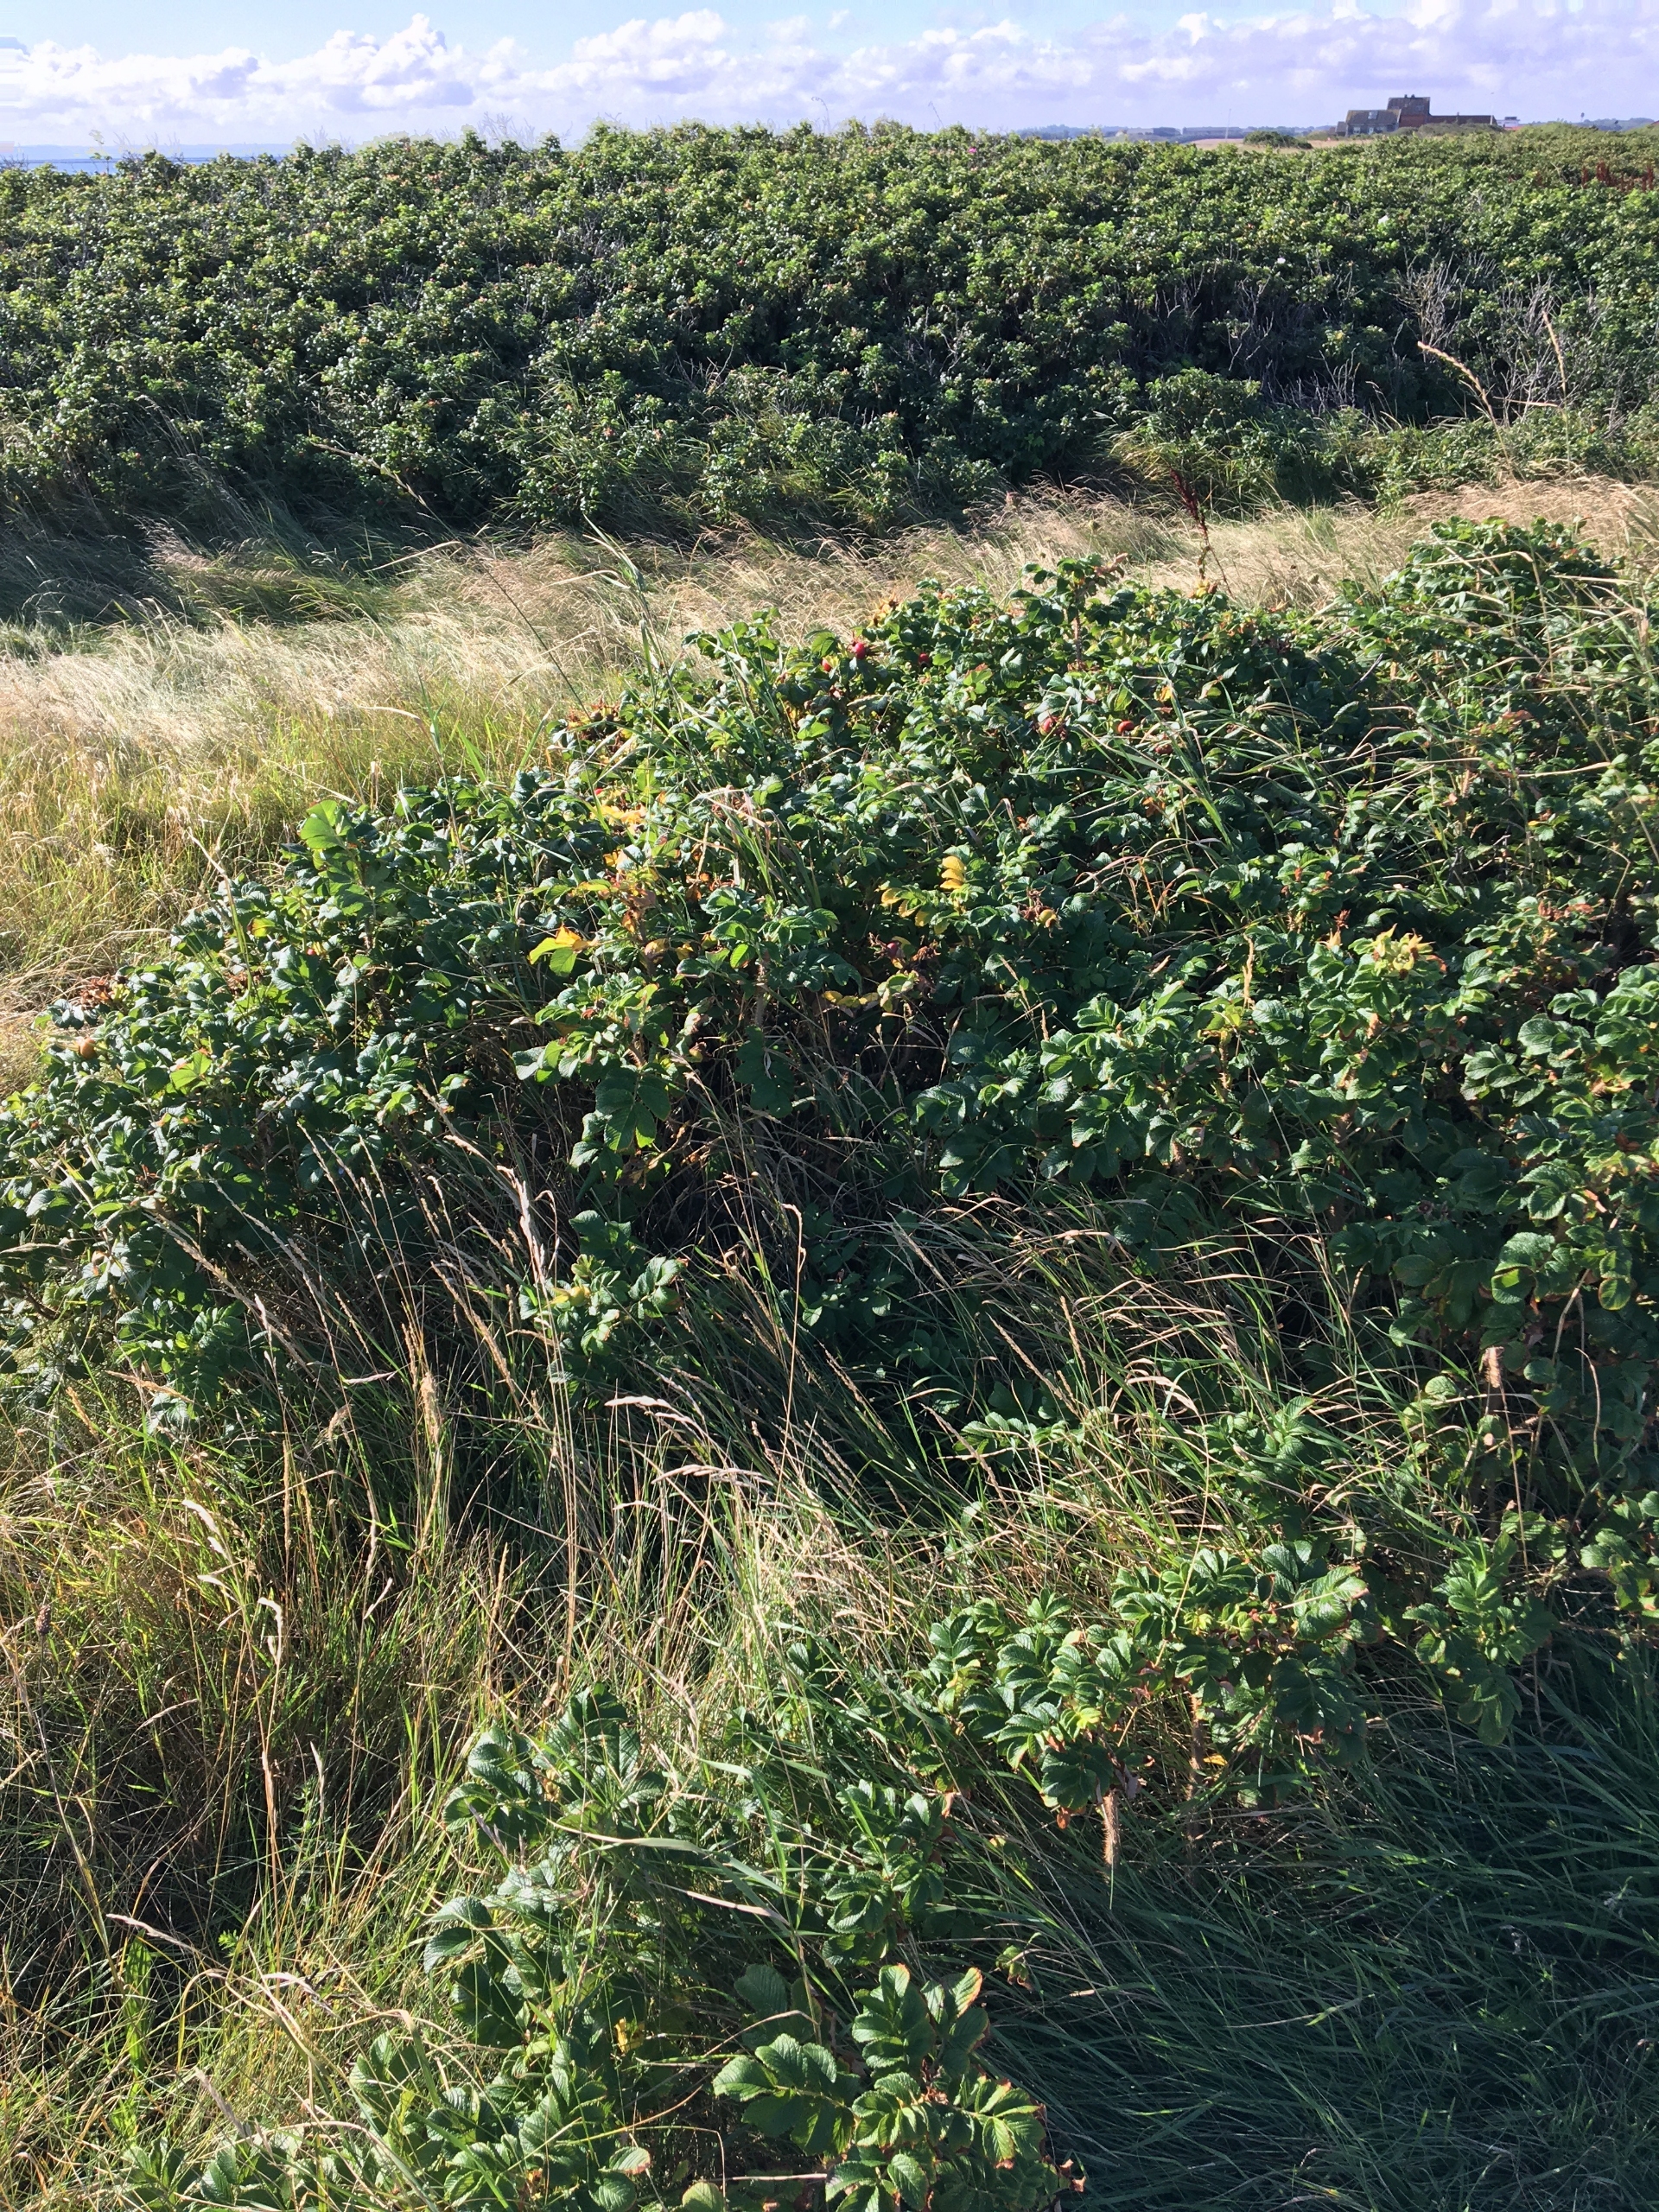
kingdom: Plantae
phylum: Tracheophyta
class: Magnoliopsida
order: Rosales
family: Rosaceae
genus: Rosa
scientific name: Rosa rugosa
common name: Rynket rose
